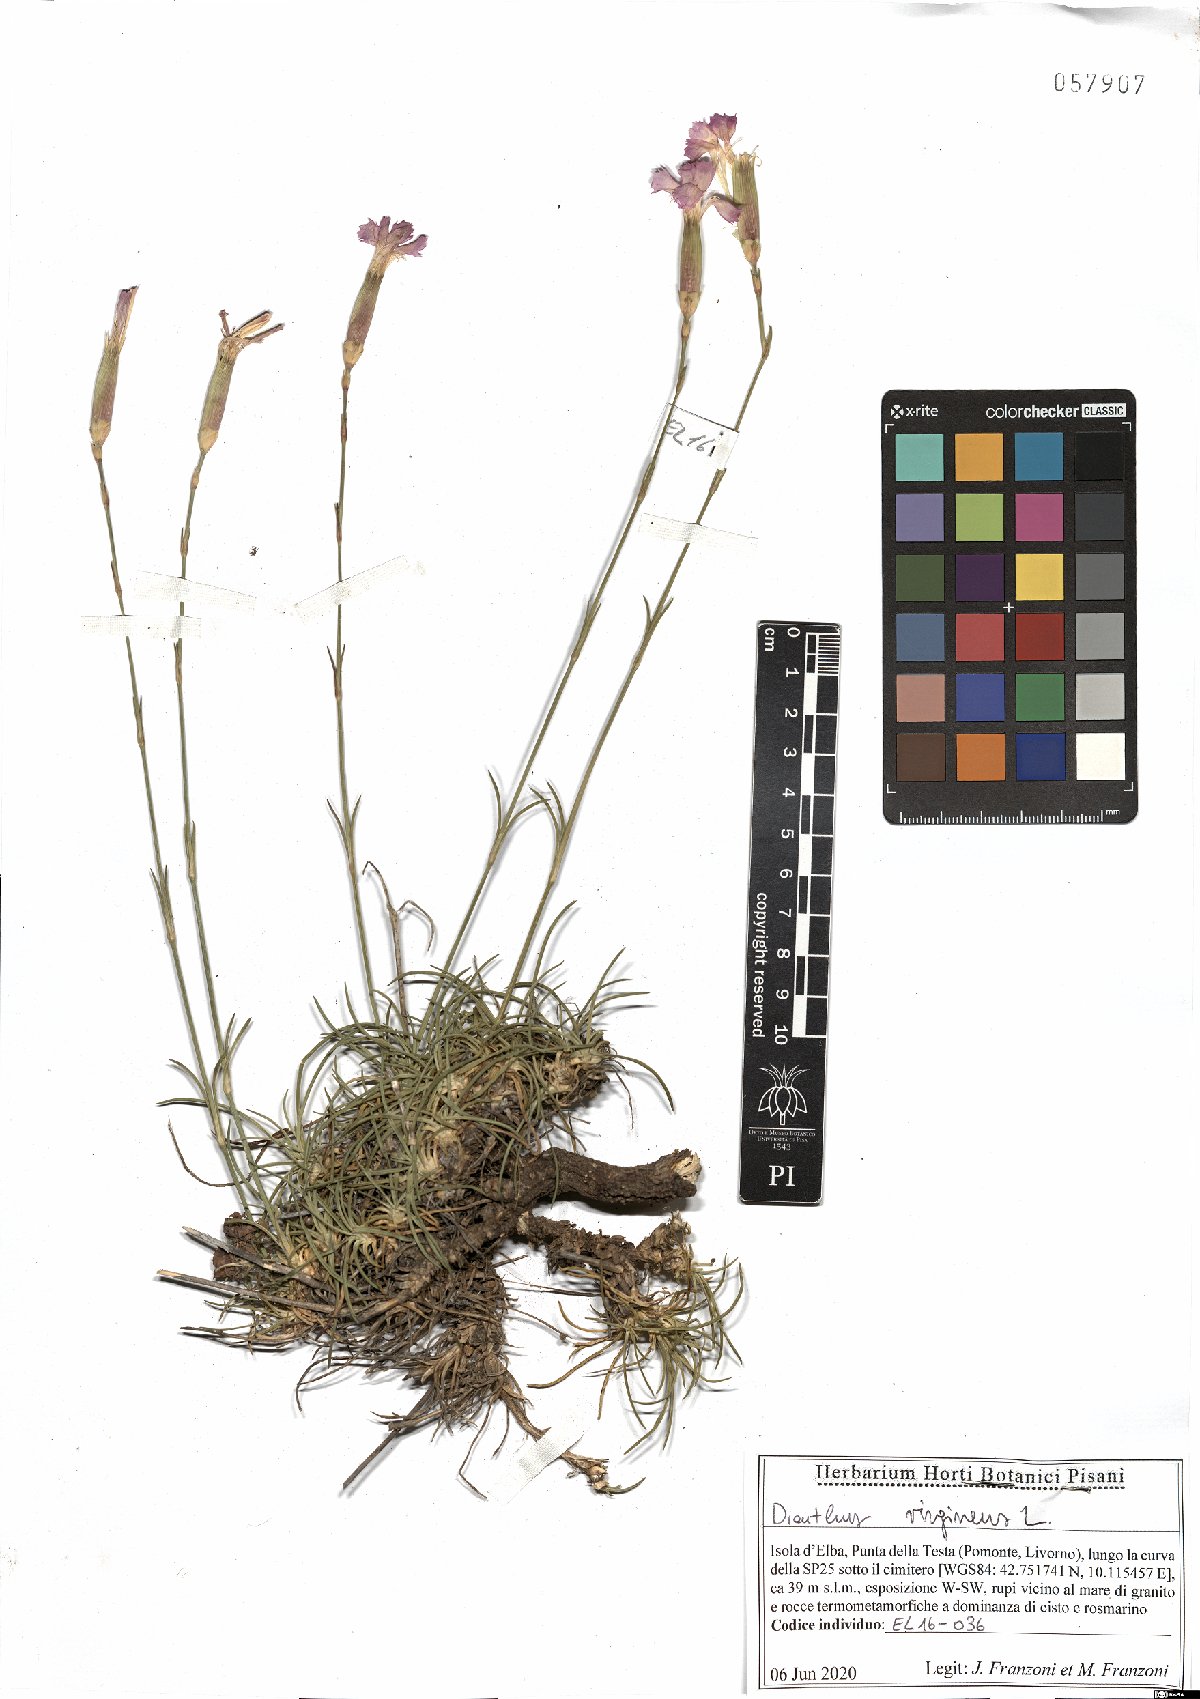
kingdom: Plantae
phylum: Tracheophyta
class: Magnoliopsida
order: Caryophyllales
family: Caryophyllaceae
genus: Dianthus
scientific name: Dianthus virgineus
